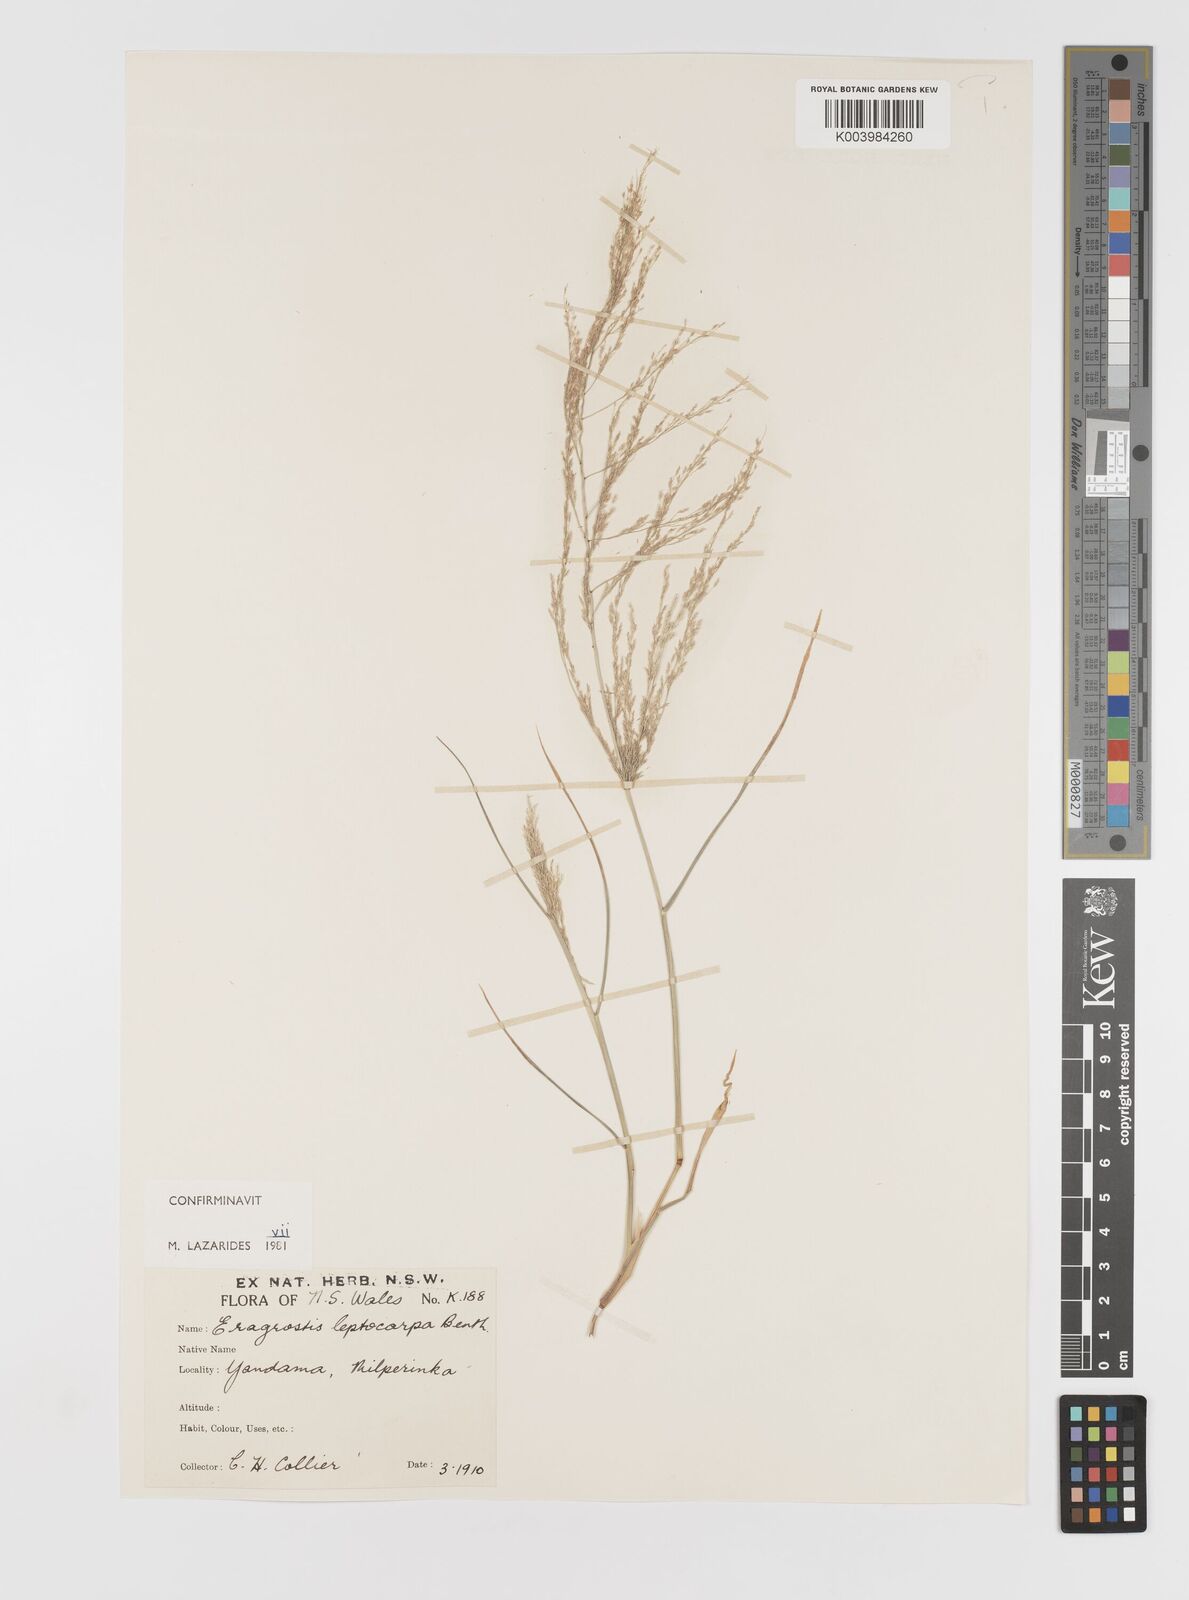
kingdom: Plantae
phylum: Tracheophyta
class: Liliopsida
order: Poales
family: Poaceae
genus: Eragrostis
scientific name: Eragrostis leptocarpa
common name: Drooping love grass
